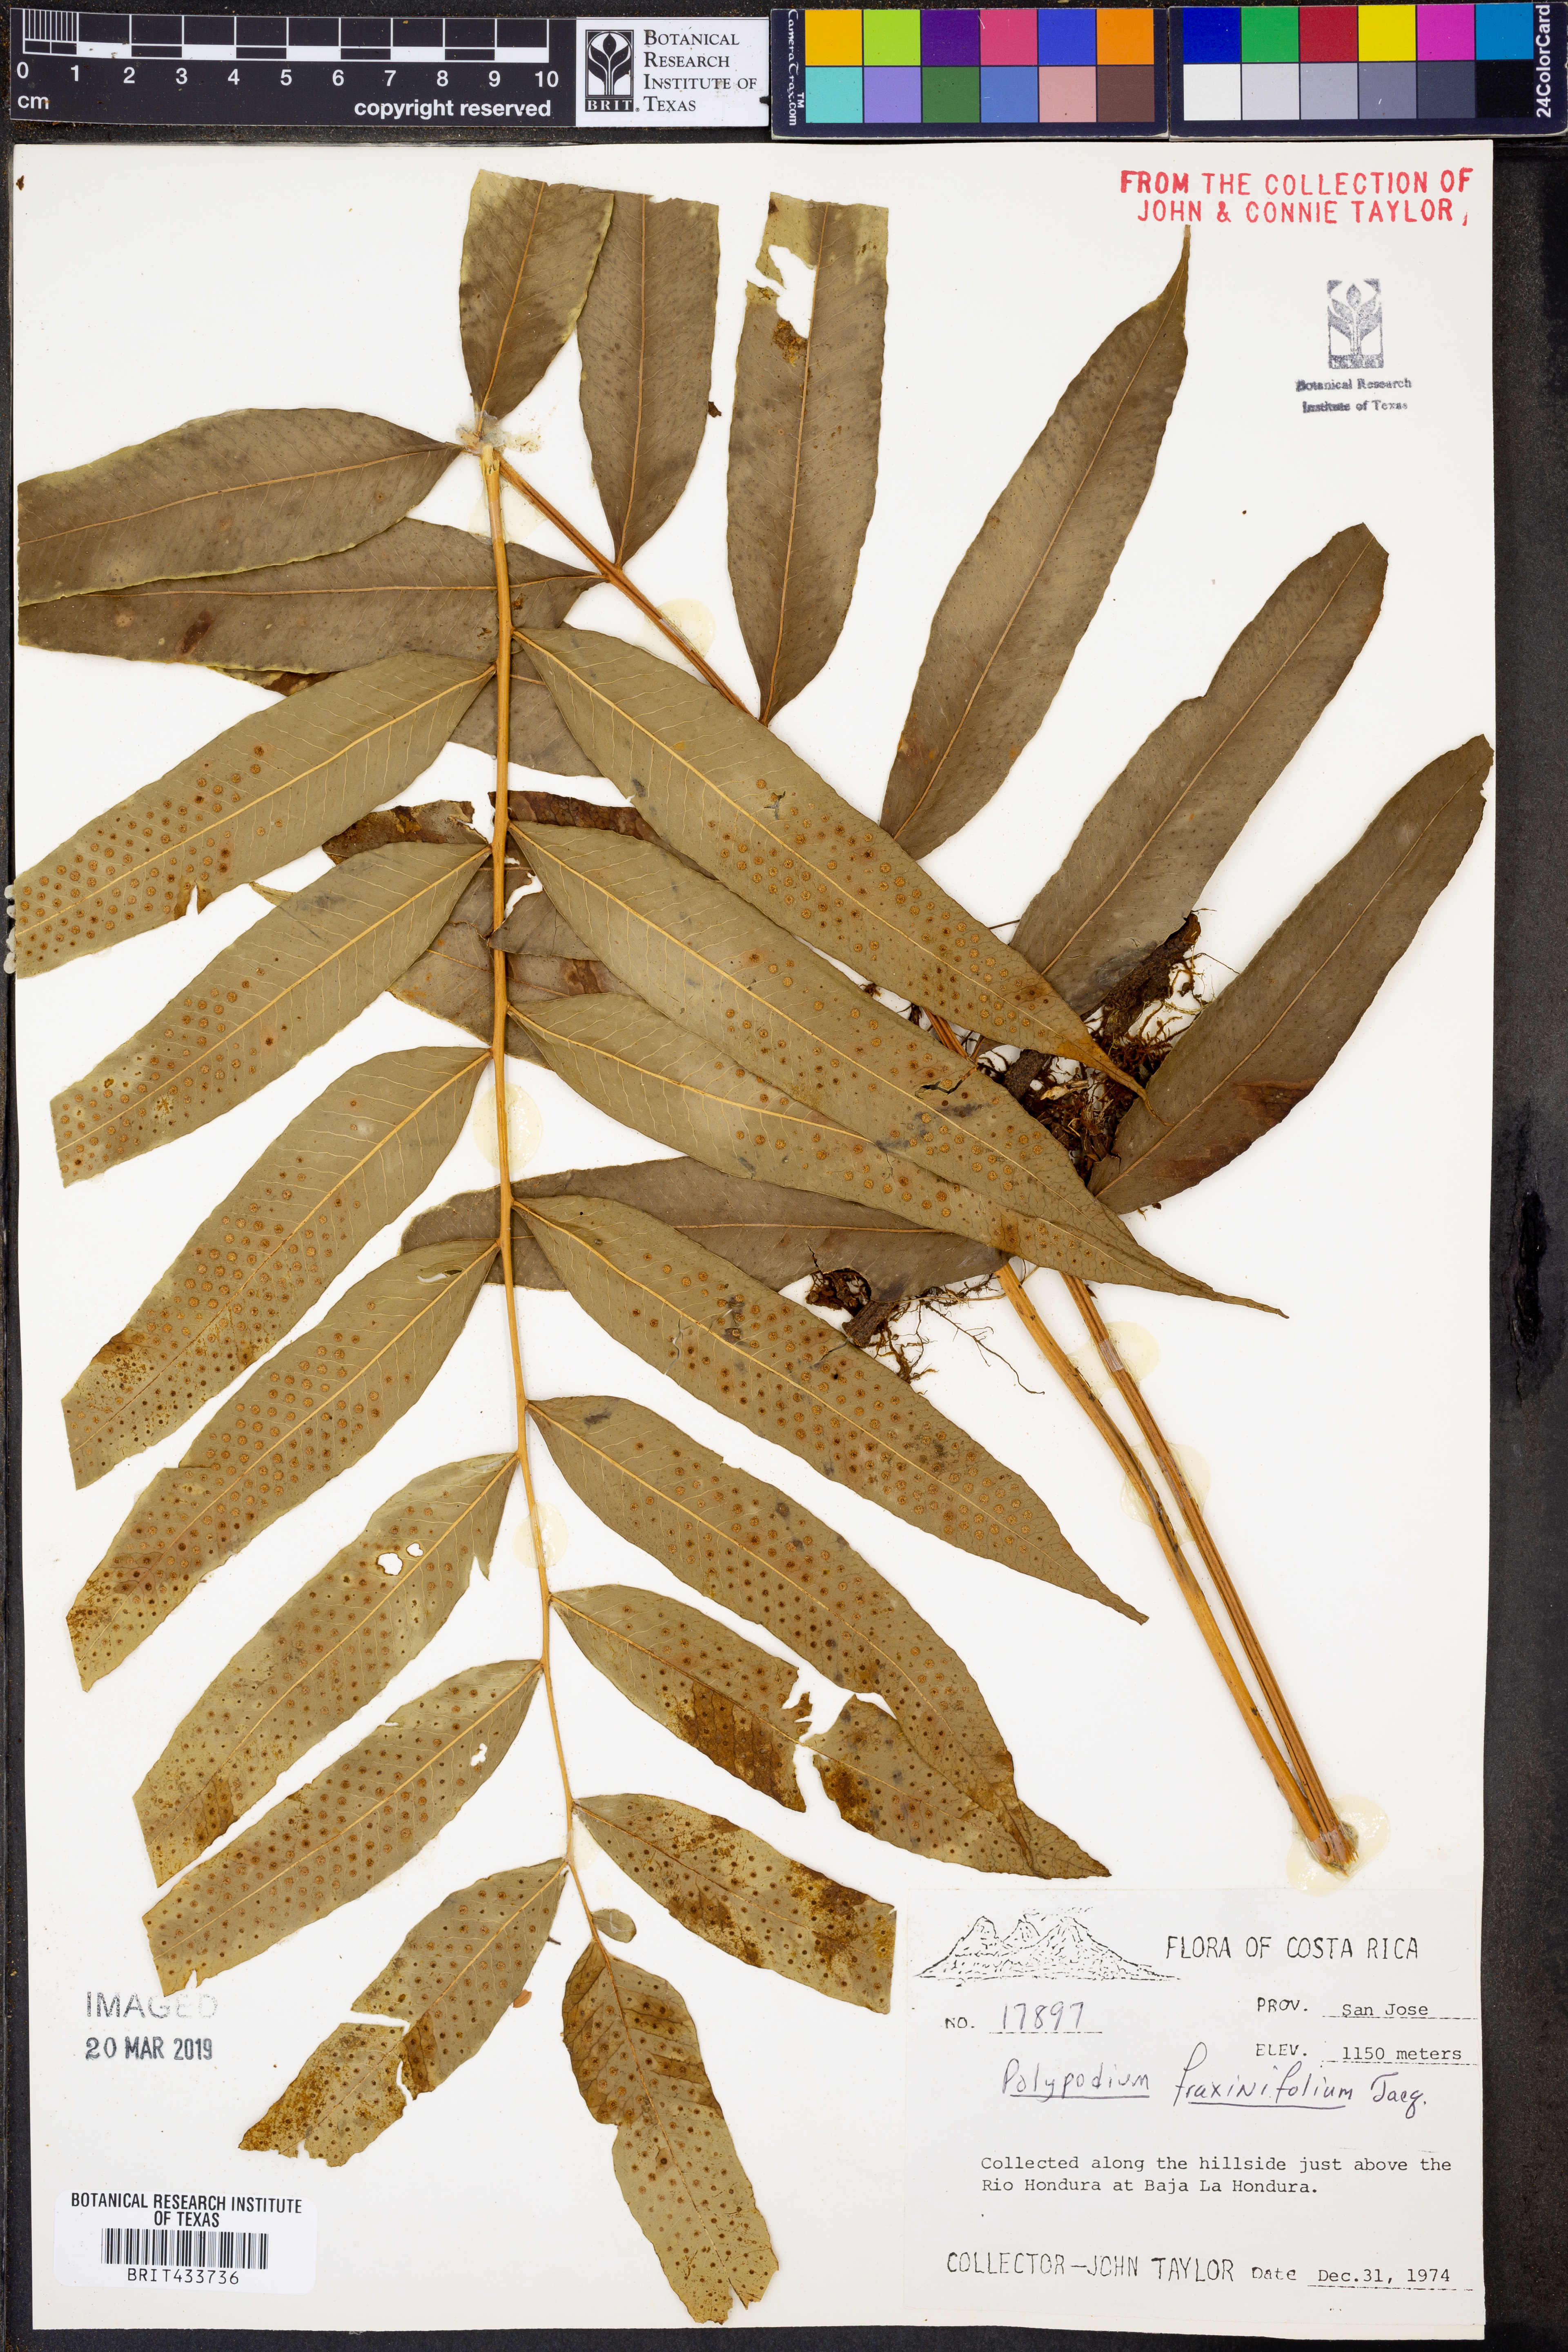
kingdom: Plantae
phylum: Tracheophyta
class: Polypodiopsida
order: Polypodiales
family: Polypodiaceae
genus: Serpocaulon
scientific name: Serpocaulon fraxinifolium
